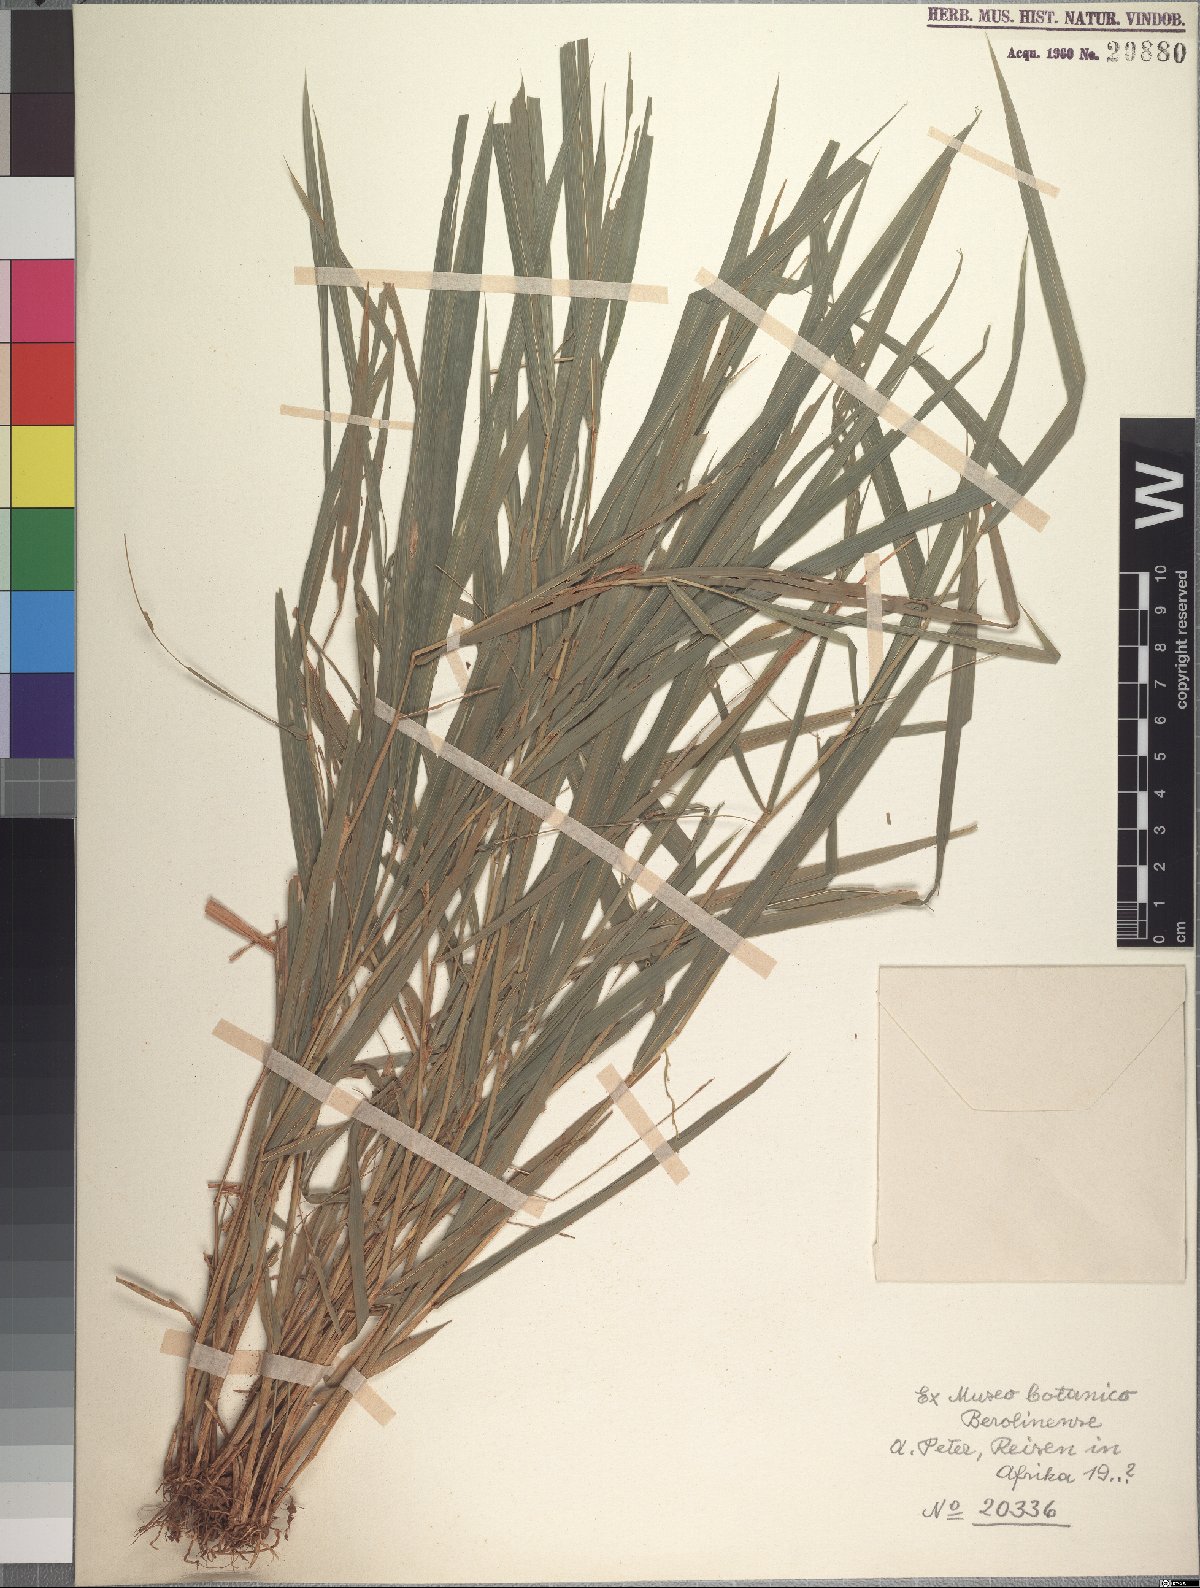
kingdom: Plantae
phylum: Tracheophyta
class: Liliopsida
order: Poales
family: Poaceae
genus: Oryza
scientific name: Oryza eichingeri
